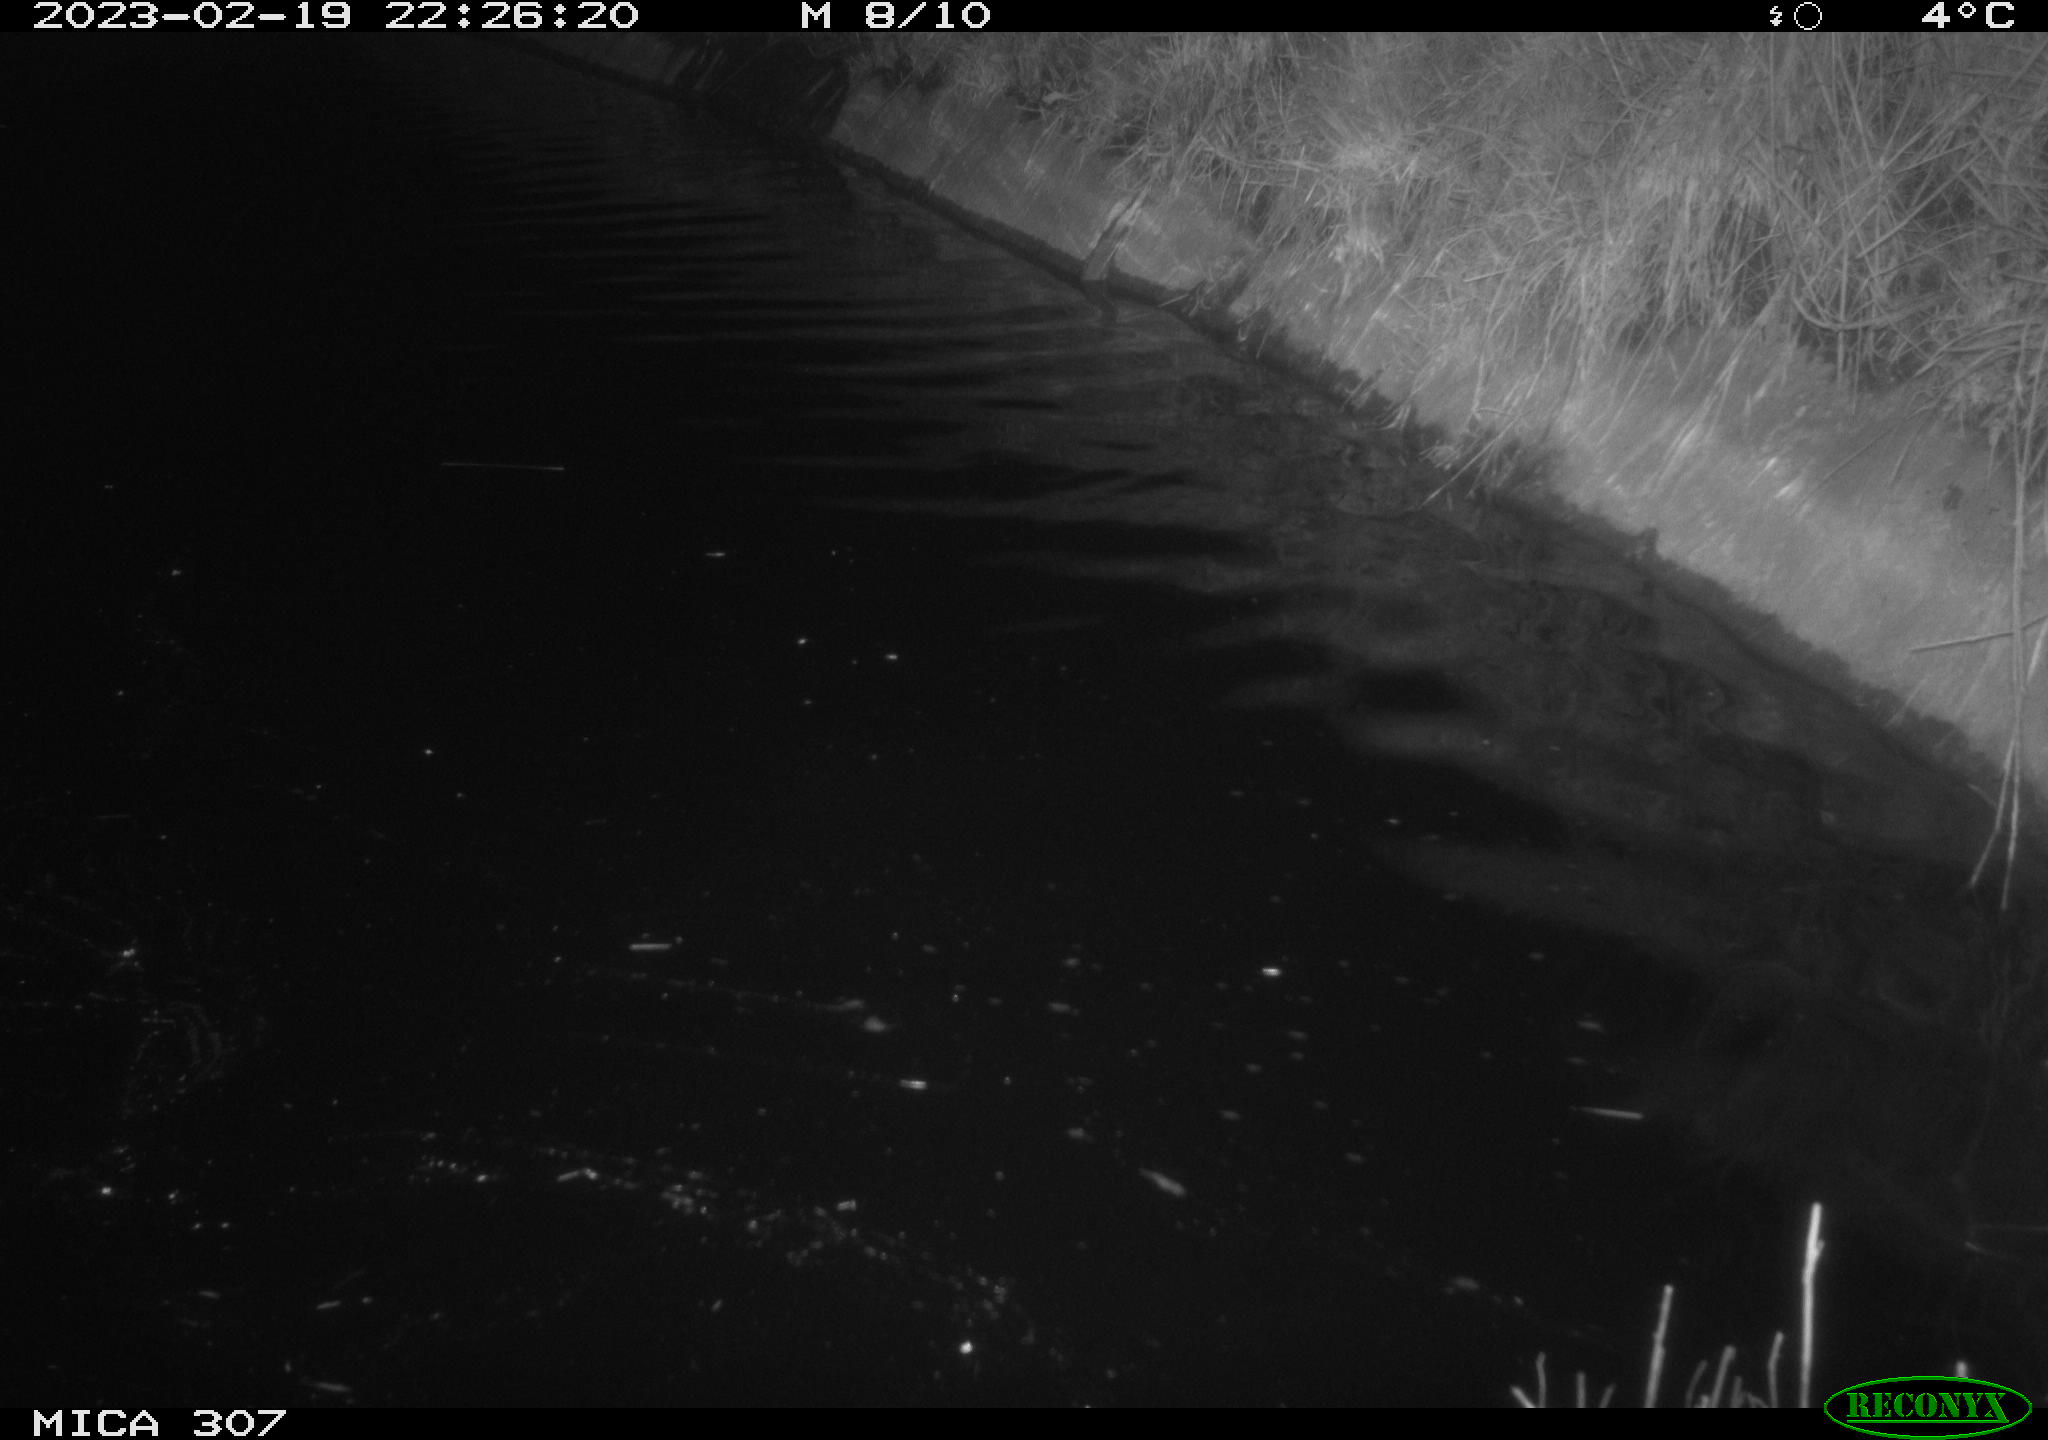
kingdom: Animalia
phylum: Chordata
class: Mammalia
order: Rodentia
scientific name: Rodentia
